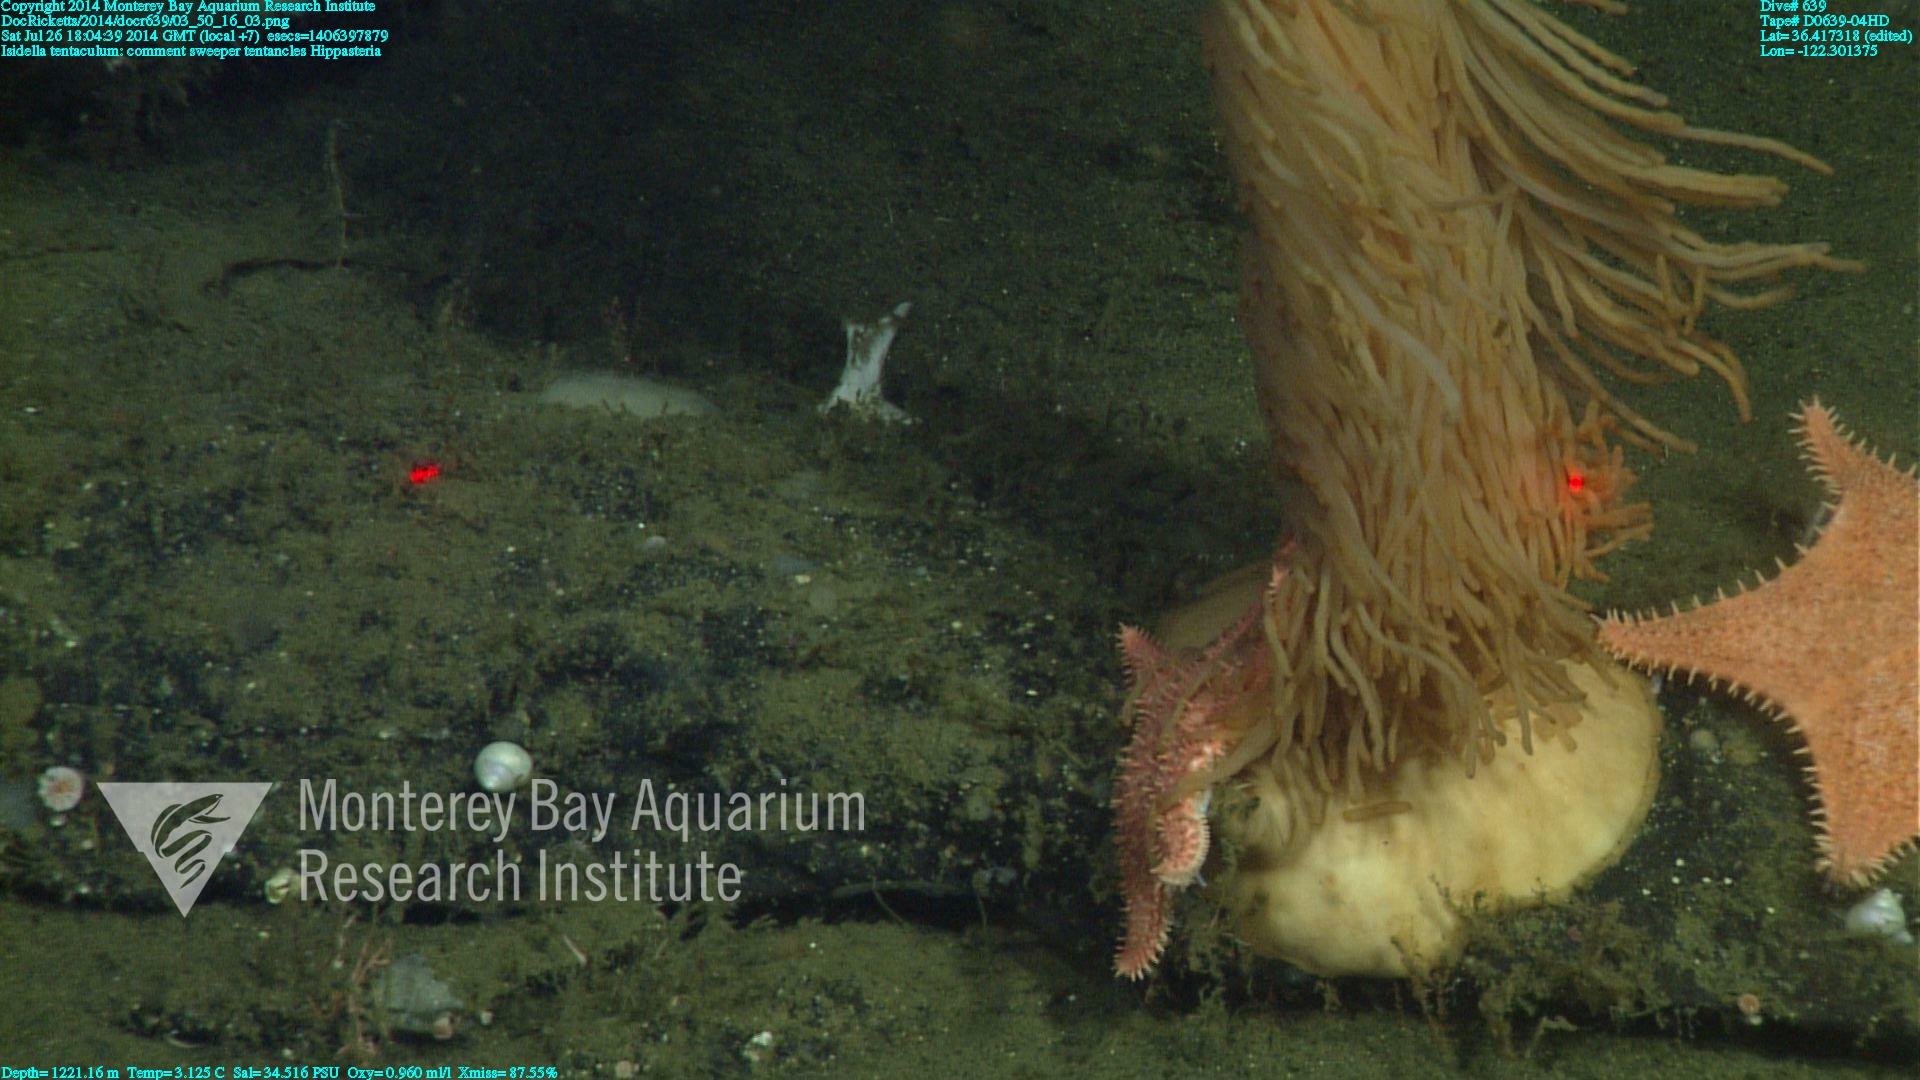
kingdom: Animalia
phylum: Cnidaria
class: Anthozoa
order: Scleralcyonacea
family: Keratoisididae
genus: Isidella
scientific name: Isidella tentaculum
